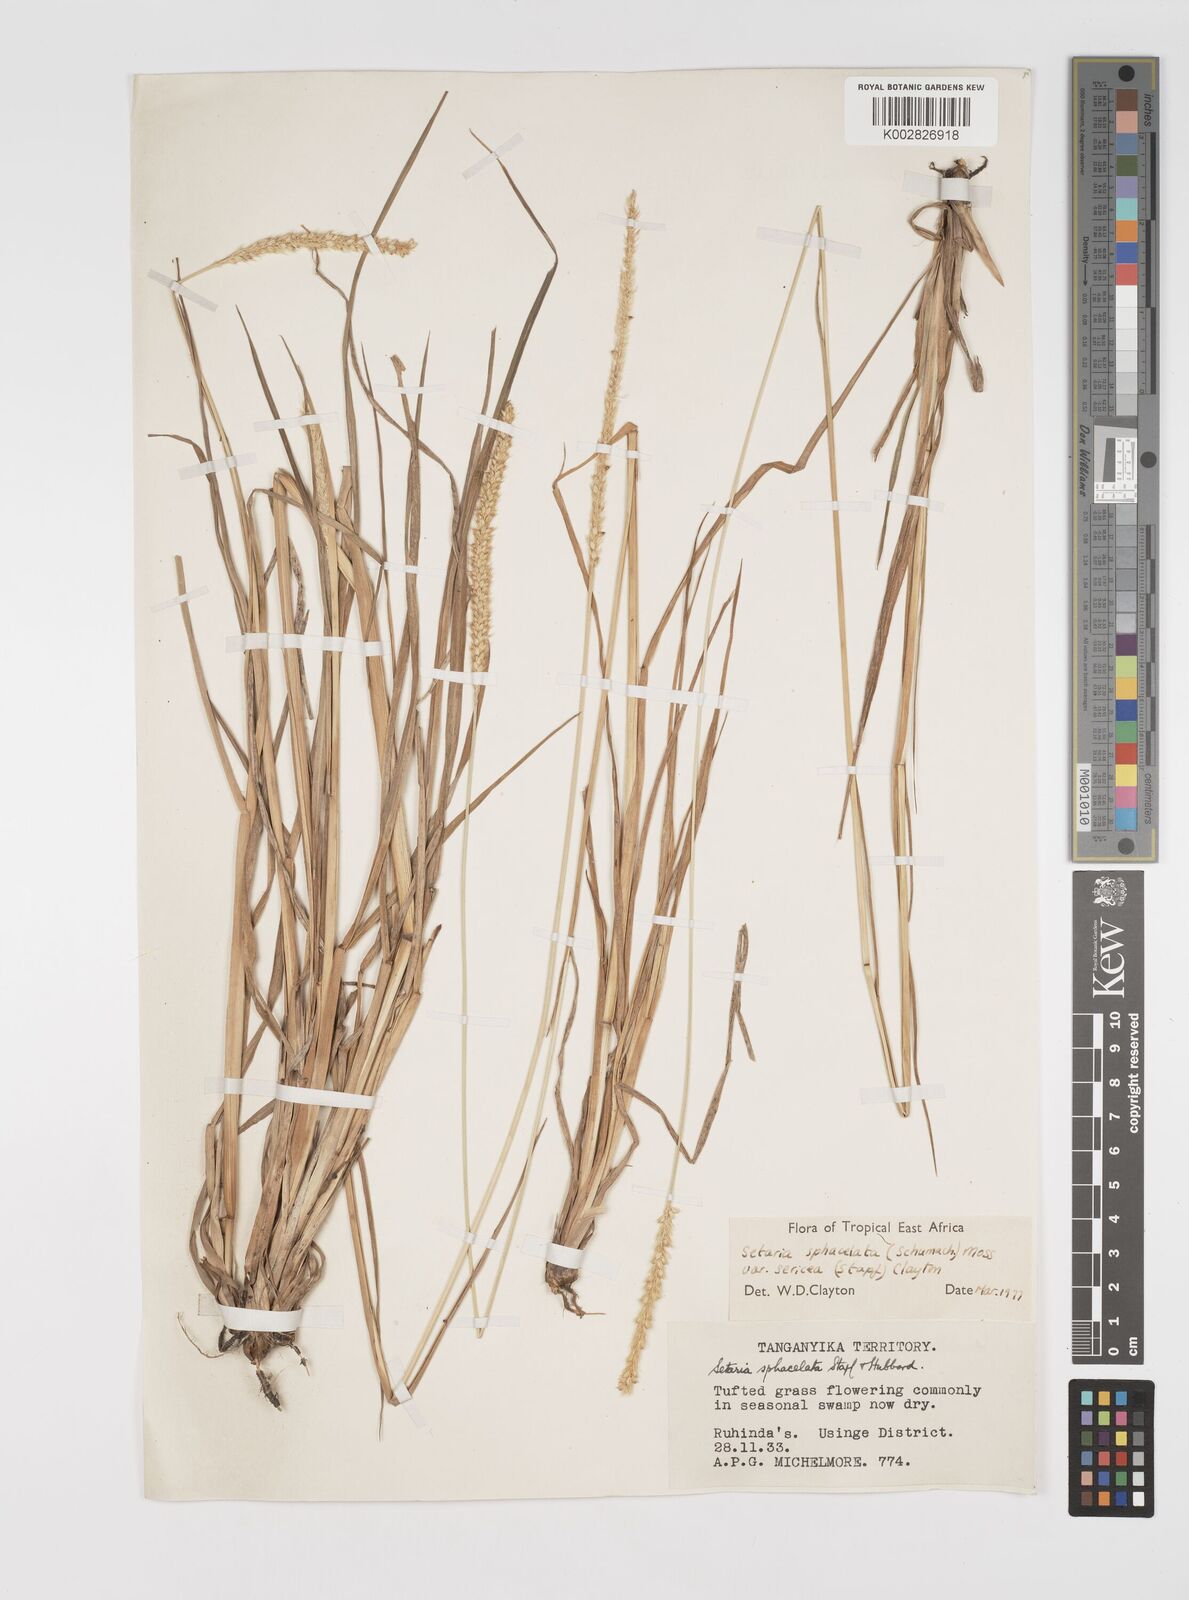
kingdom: Plantae
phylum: Tracheophyta
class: Liliopsida
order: Poales
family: Poaceae
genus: Setaria
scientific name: Setaria sphacelata
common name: African bristlegrass
